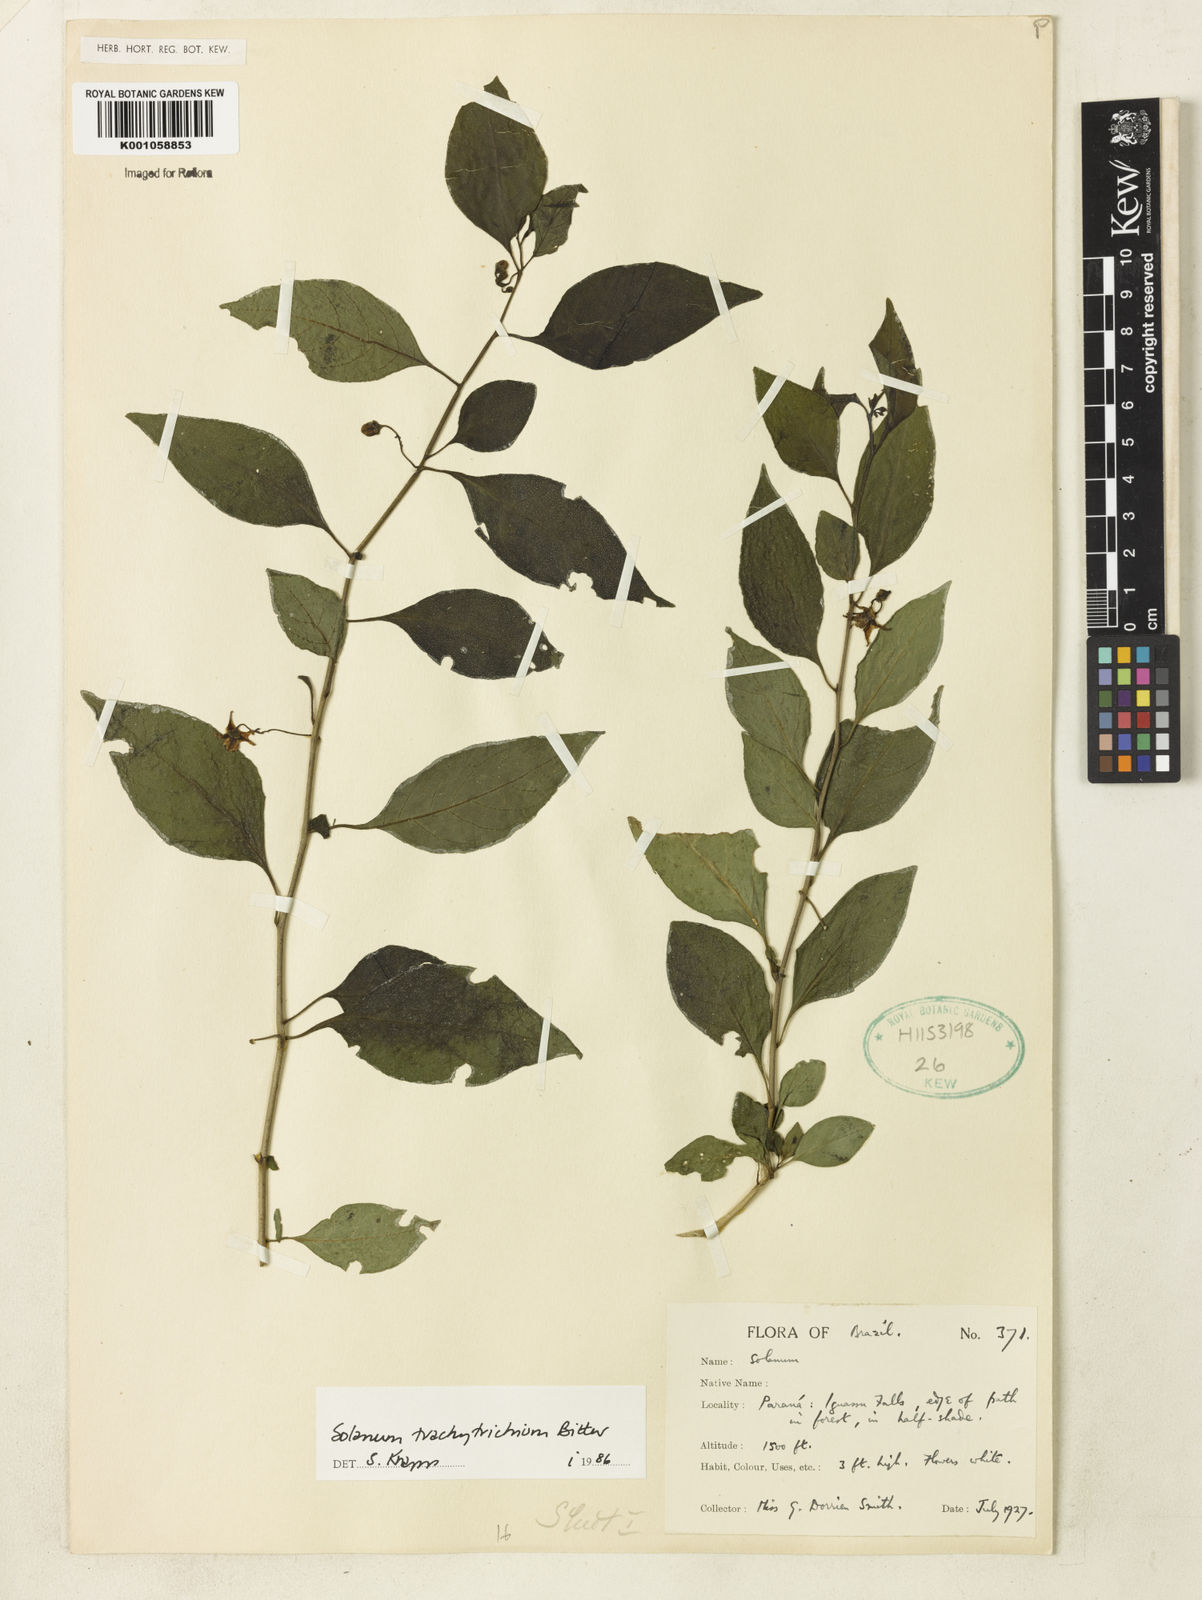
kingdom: Plantae
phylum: Tracheophyta
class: Magnoliopsida
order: Solanales
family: Solanaceae
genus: Solanum
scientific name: Solanum trachytrichium
